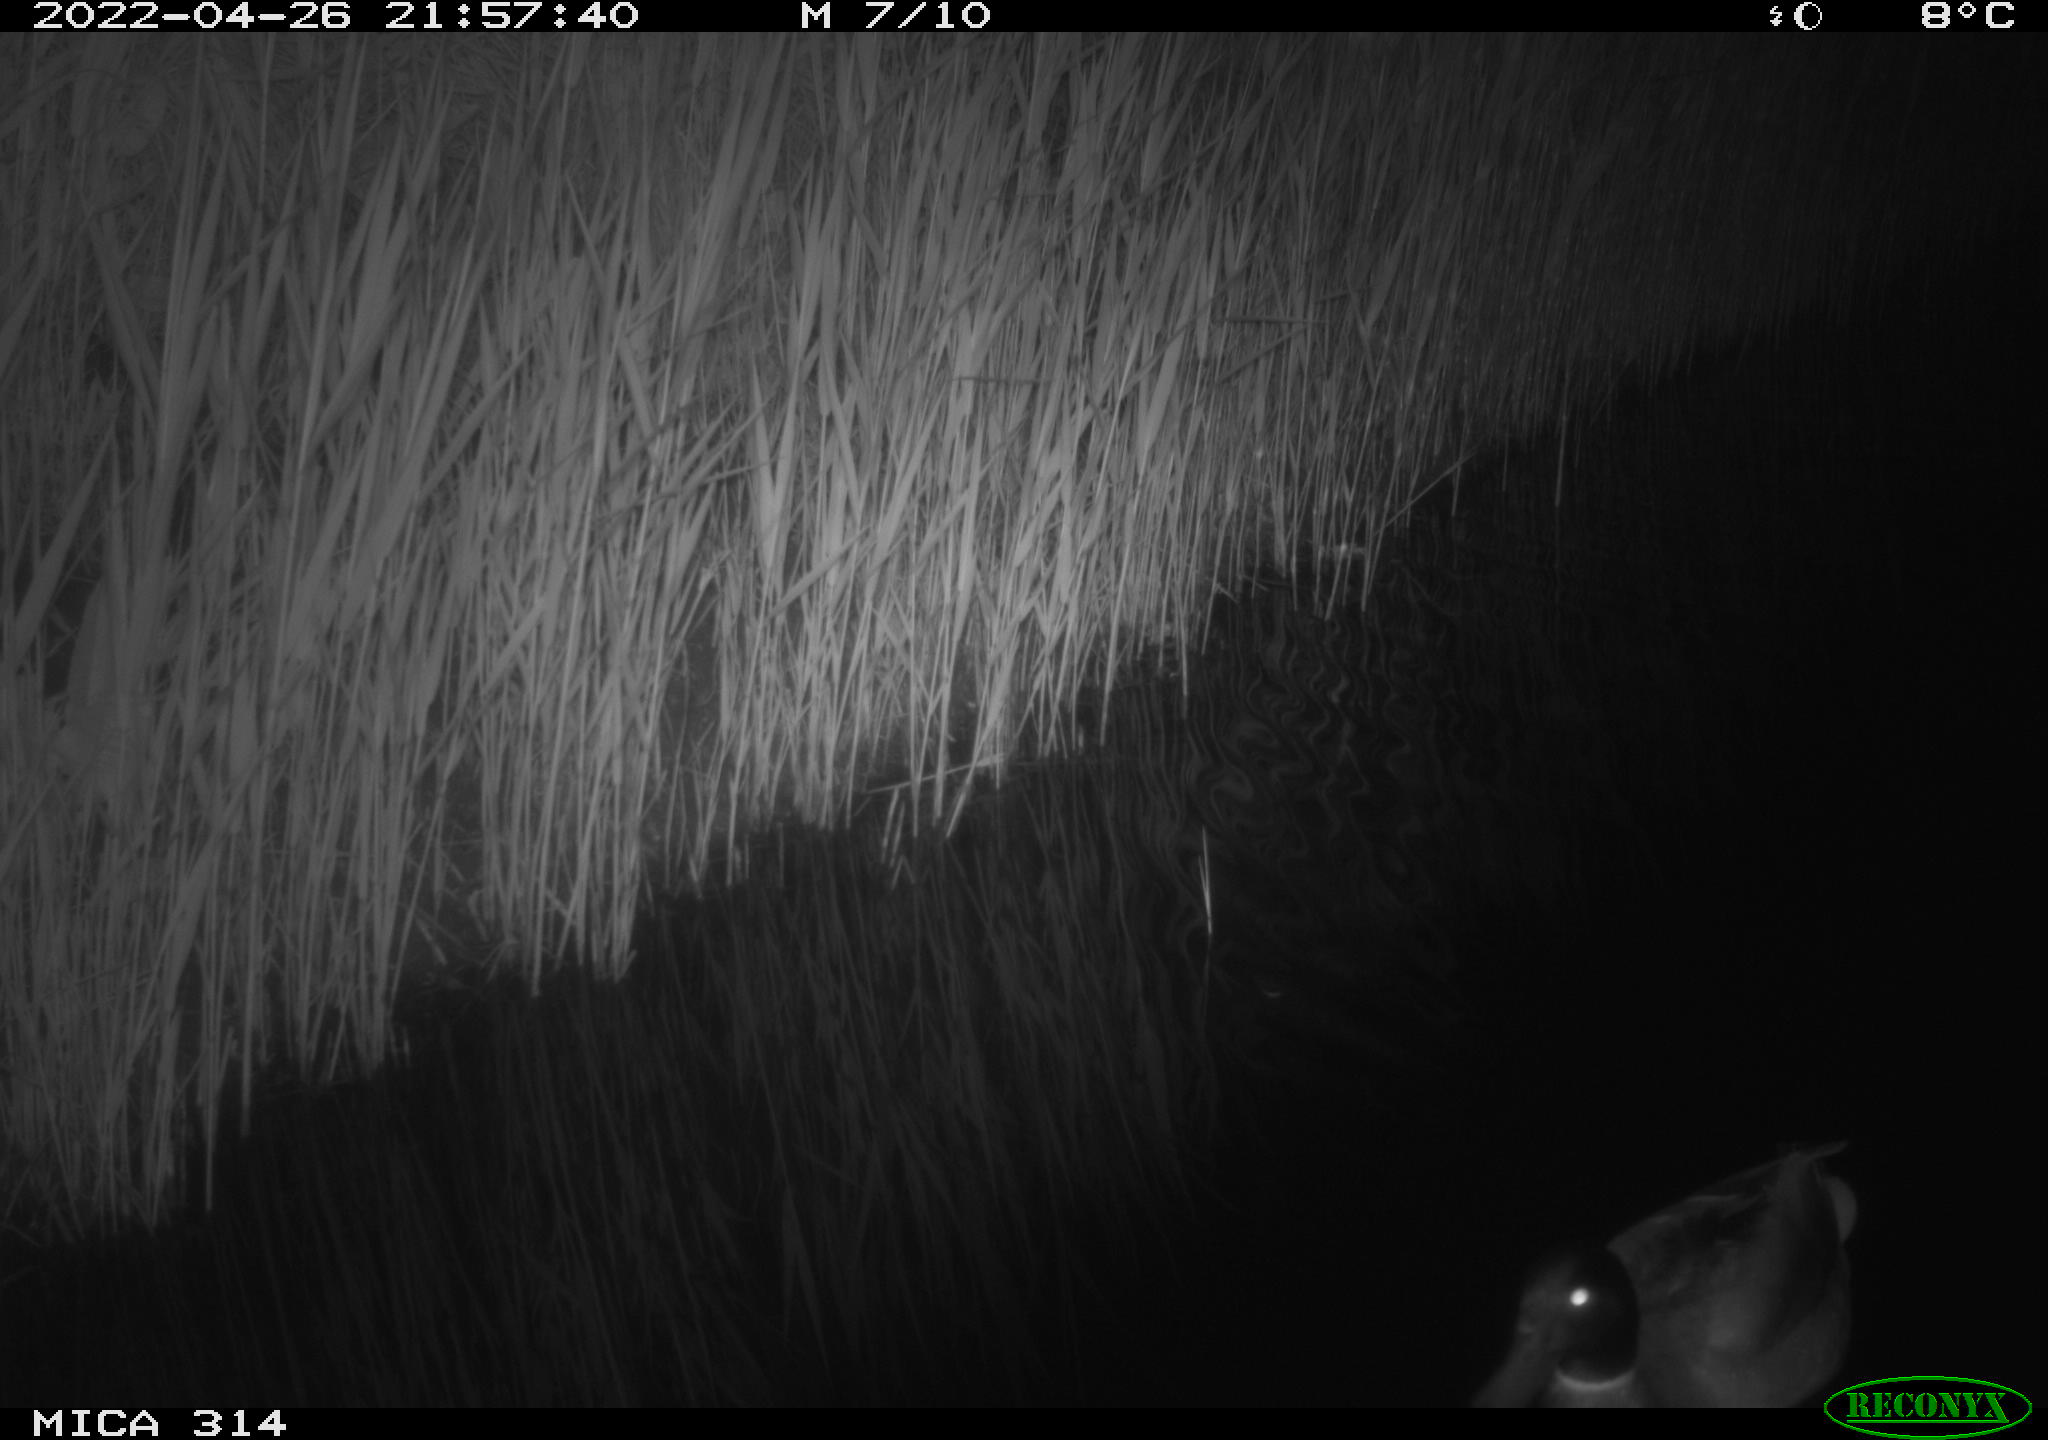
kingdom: Animalia
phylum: Chordata
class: Aves
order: Anseriformes
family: Anatidae
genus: Anas
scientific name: Anas platyrhynchos
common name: Mallard
